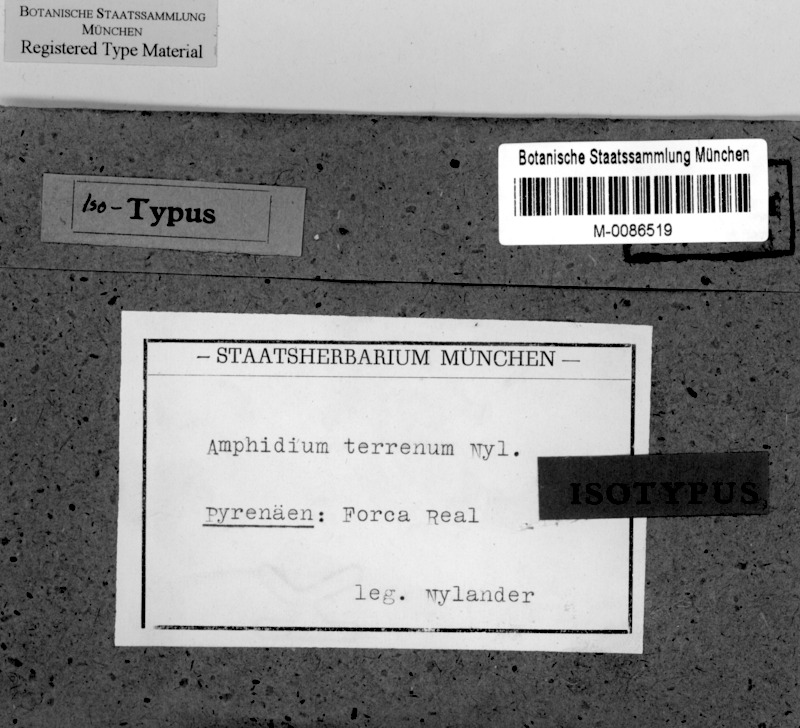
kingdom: Fungi
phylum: Ascomycota
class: Lecanoromycetes
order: Peltigerales
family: Collemataceae
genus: Epiphloea
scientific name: Epiphloea terrena
